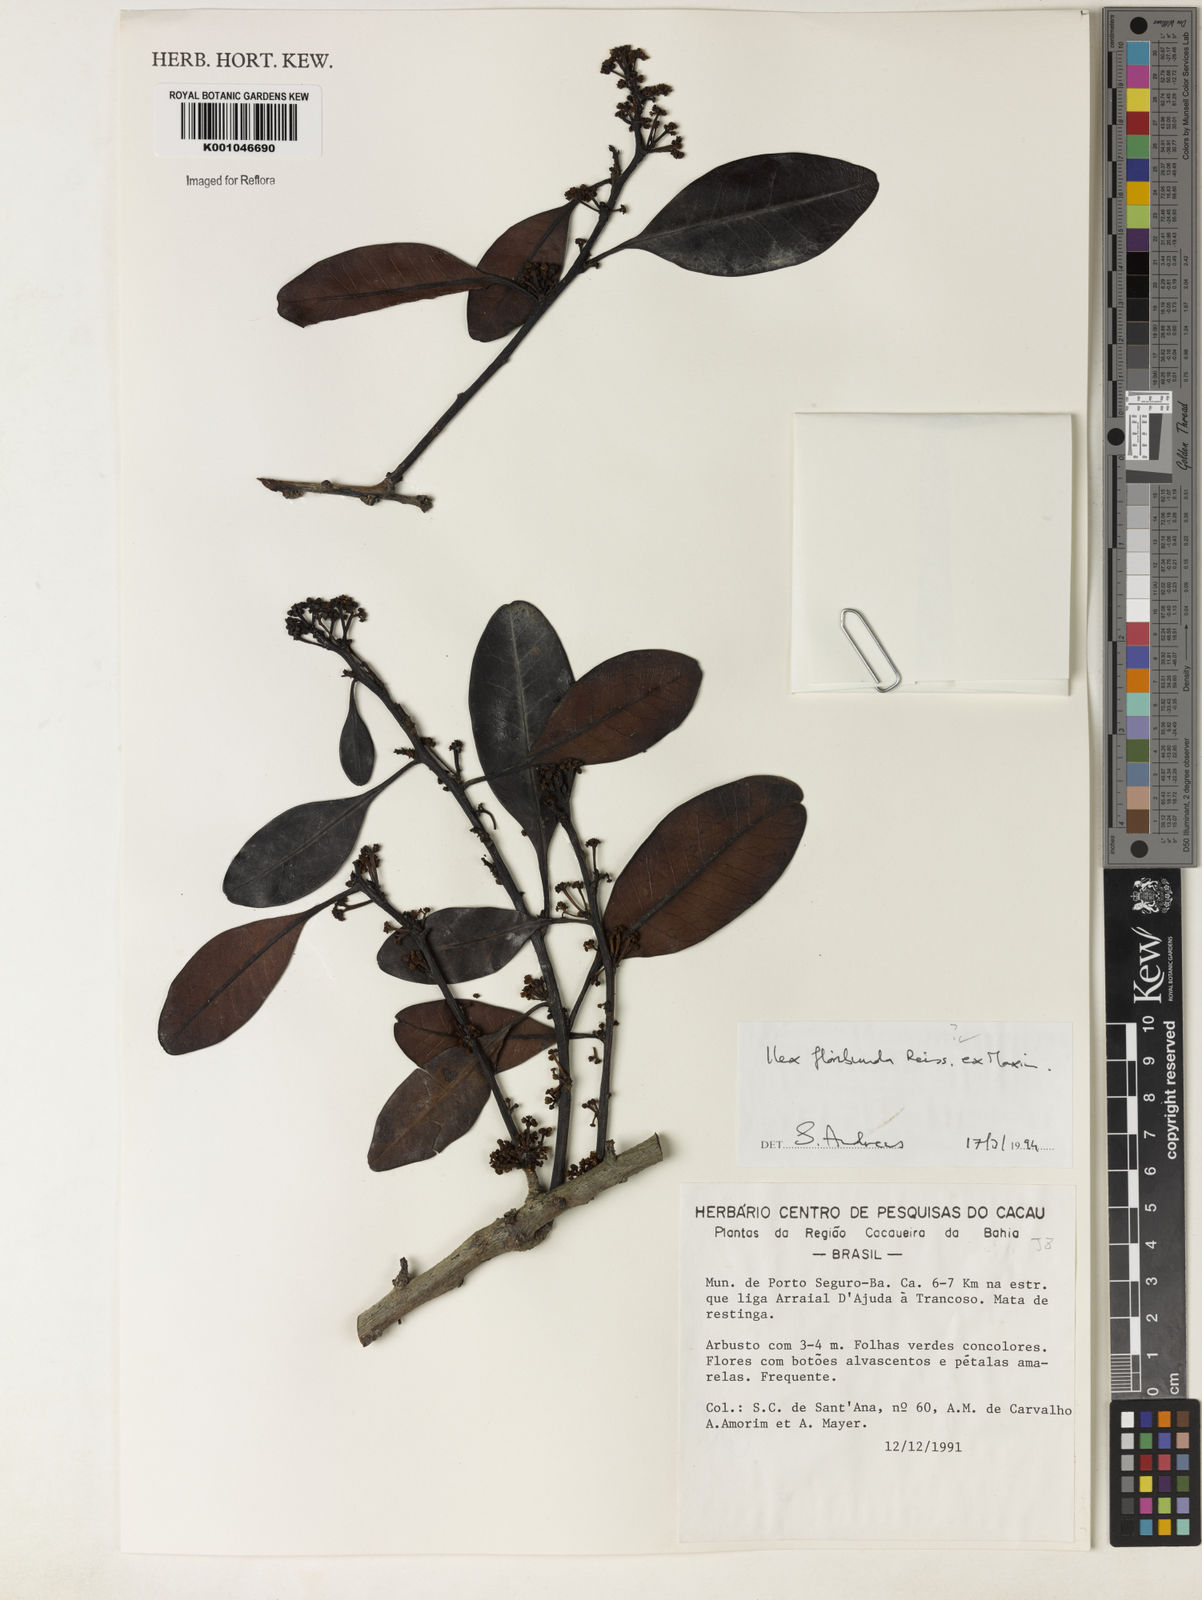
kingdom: Plantae
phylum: Tracheophyta
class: Magnoliopsida
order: Aquifoliales
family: Aquifoliaceae
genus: Ilex
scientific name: Ilex floribunda
